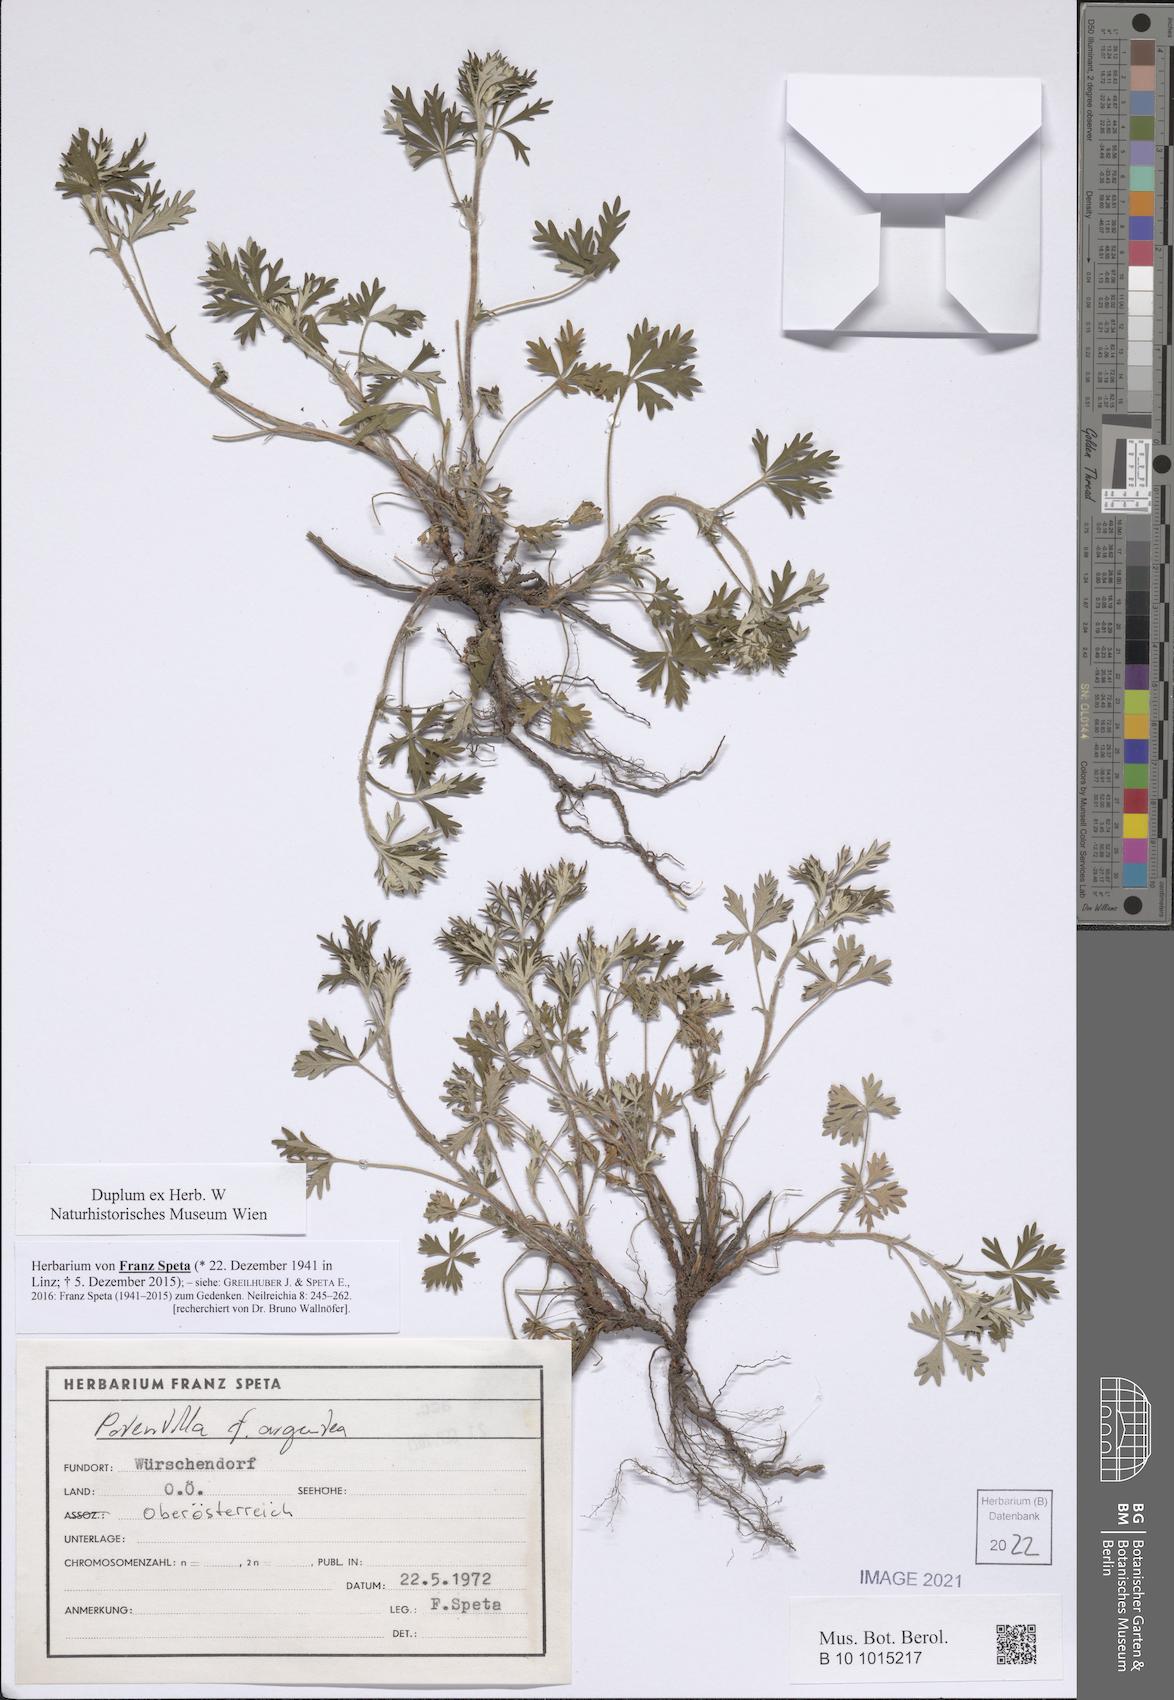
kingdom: Plantae
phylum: Tracheophyta
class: Magnoliopsida
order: Rosales
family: Rosaceae
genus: Potentilla
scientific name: Potentilla argentea
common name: Hoary cinquefoil
